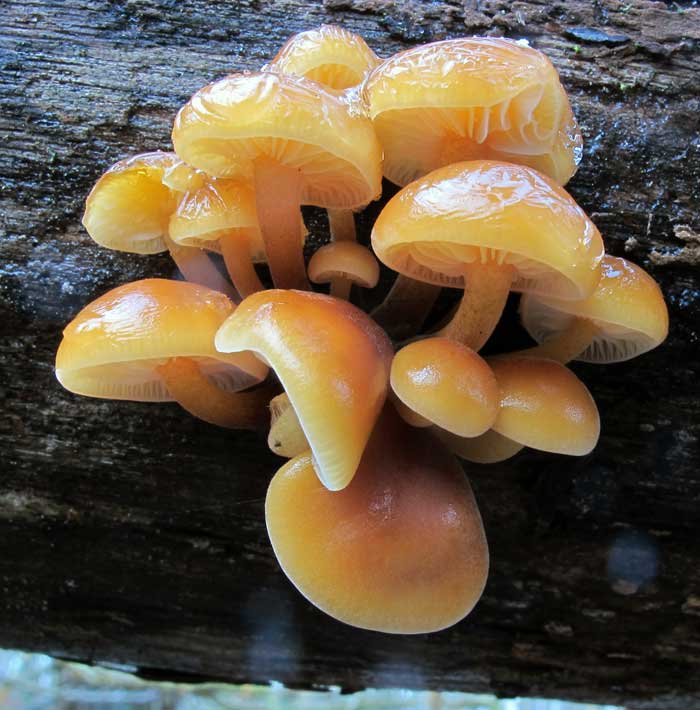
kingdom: Fungi
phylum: Basidiomycota
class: Agaricomycetes
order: Agaricales
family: Physalacriaceae
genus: Flammulina
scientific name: Flammulina velutipes
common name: gul fløjlsfod
